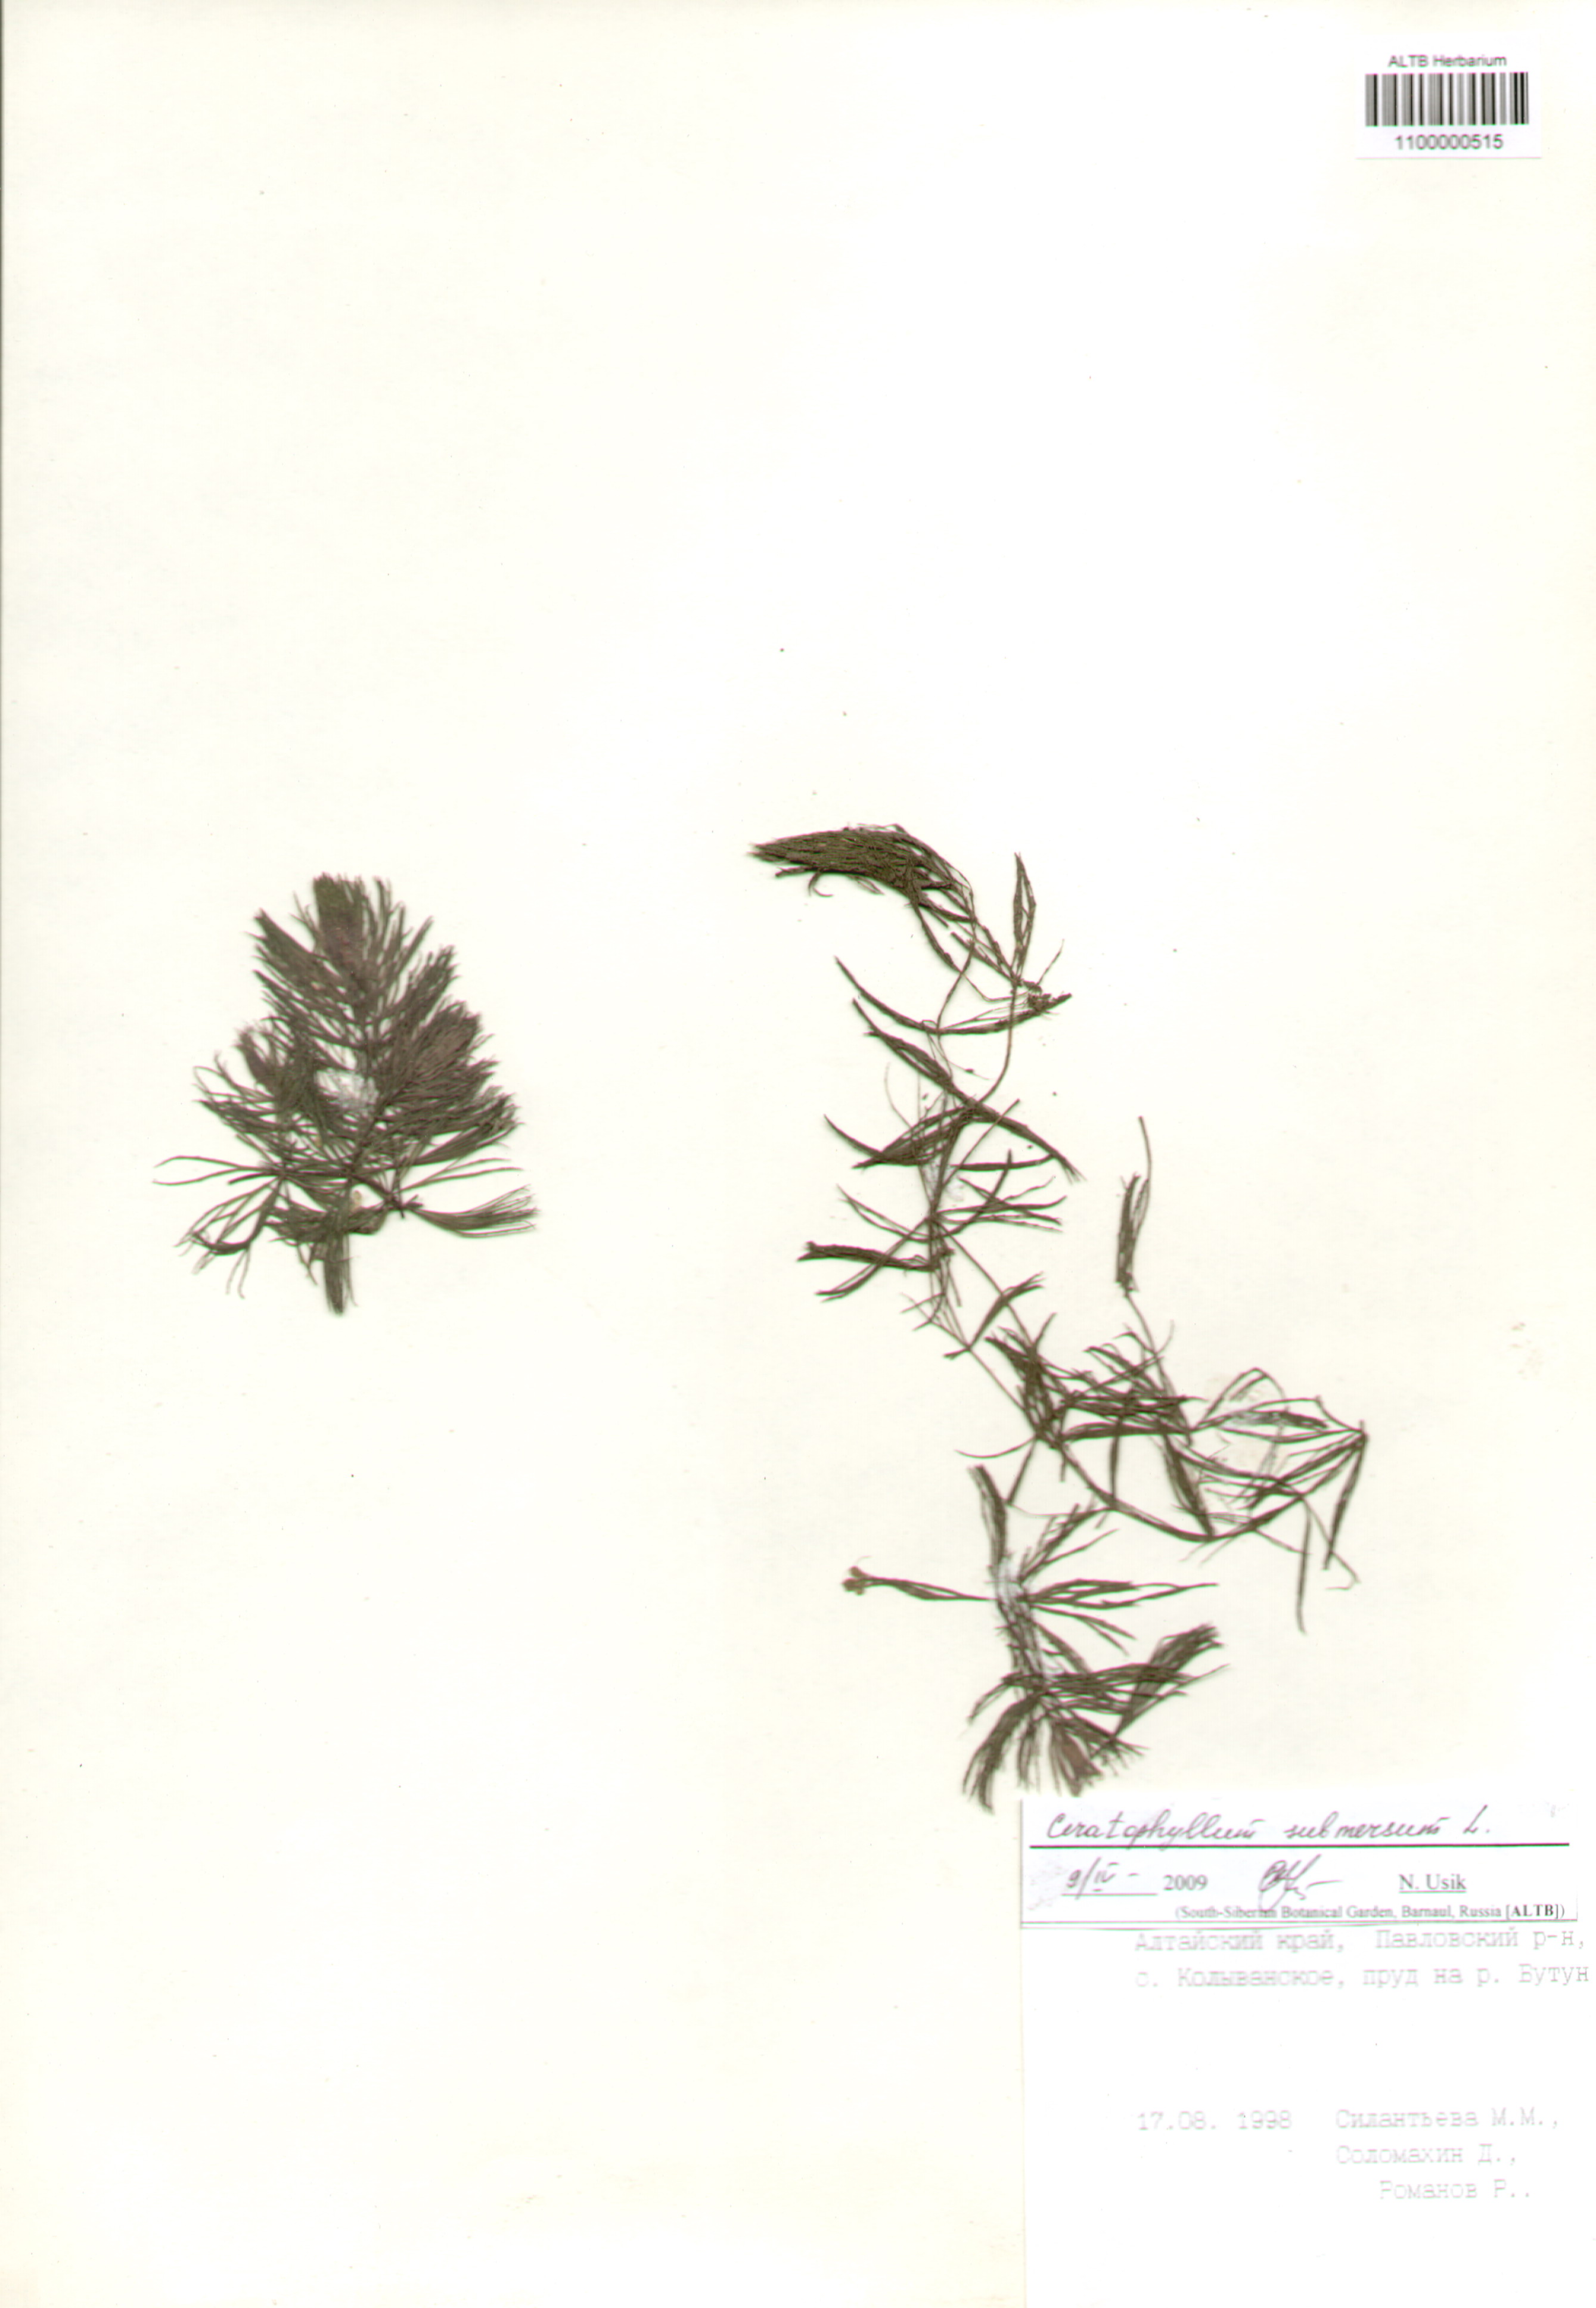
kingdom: Plantae
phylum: Tracheophyta
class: Magnoliopsida
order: Ceratophyllales
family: Ceratophyllaceae
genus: Ceratophyllum
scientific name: Ceratophyllum submersum
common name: Soft hornwort
